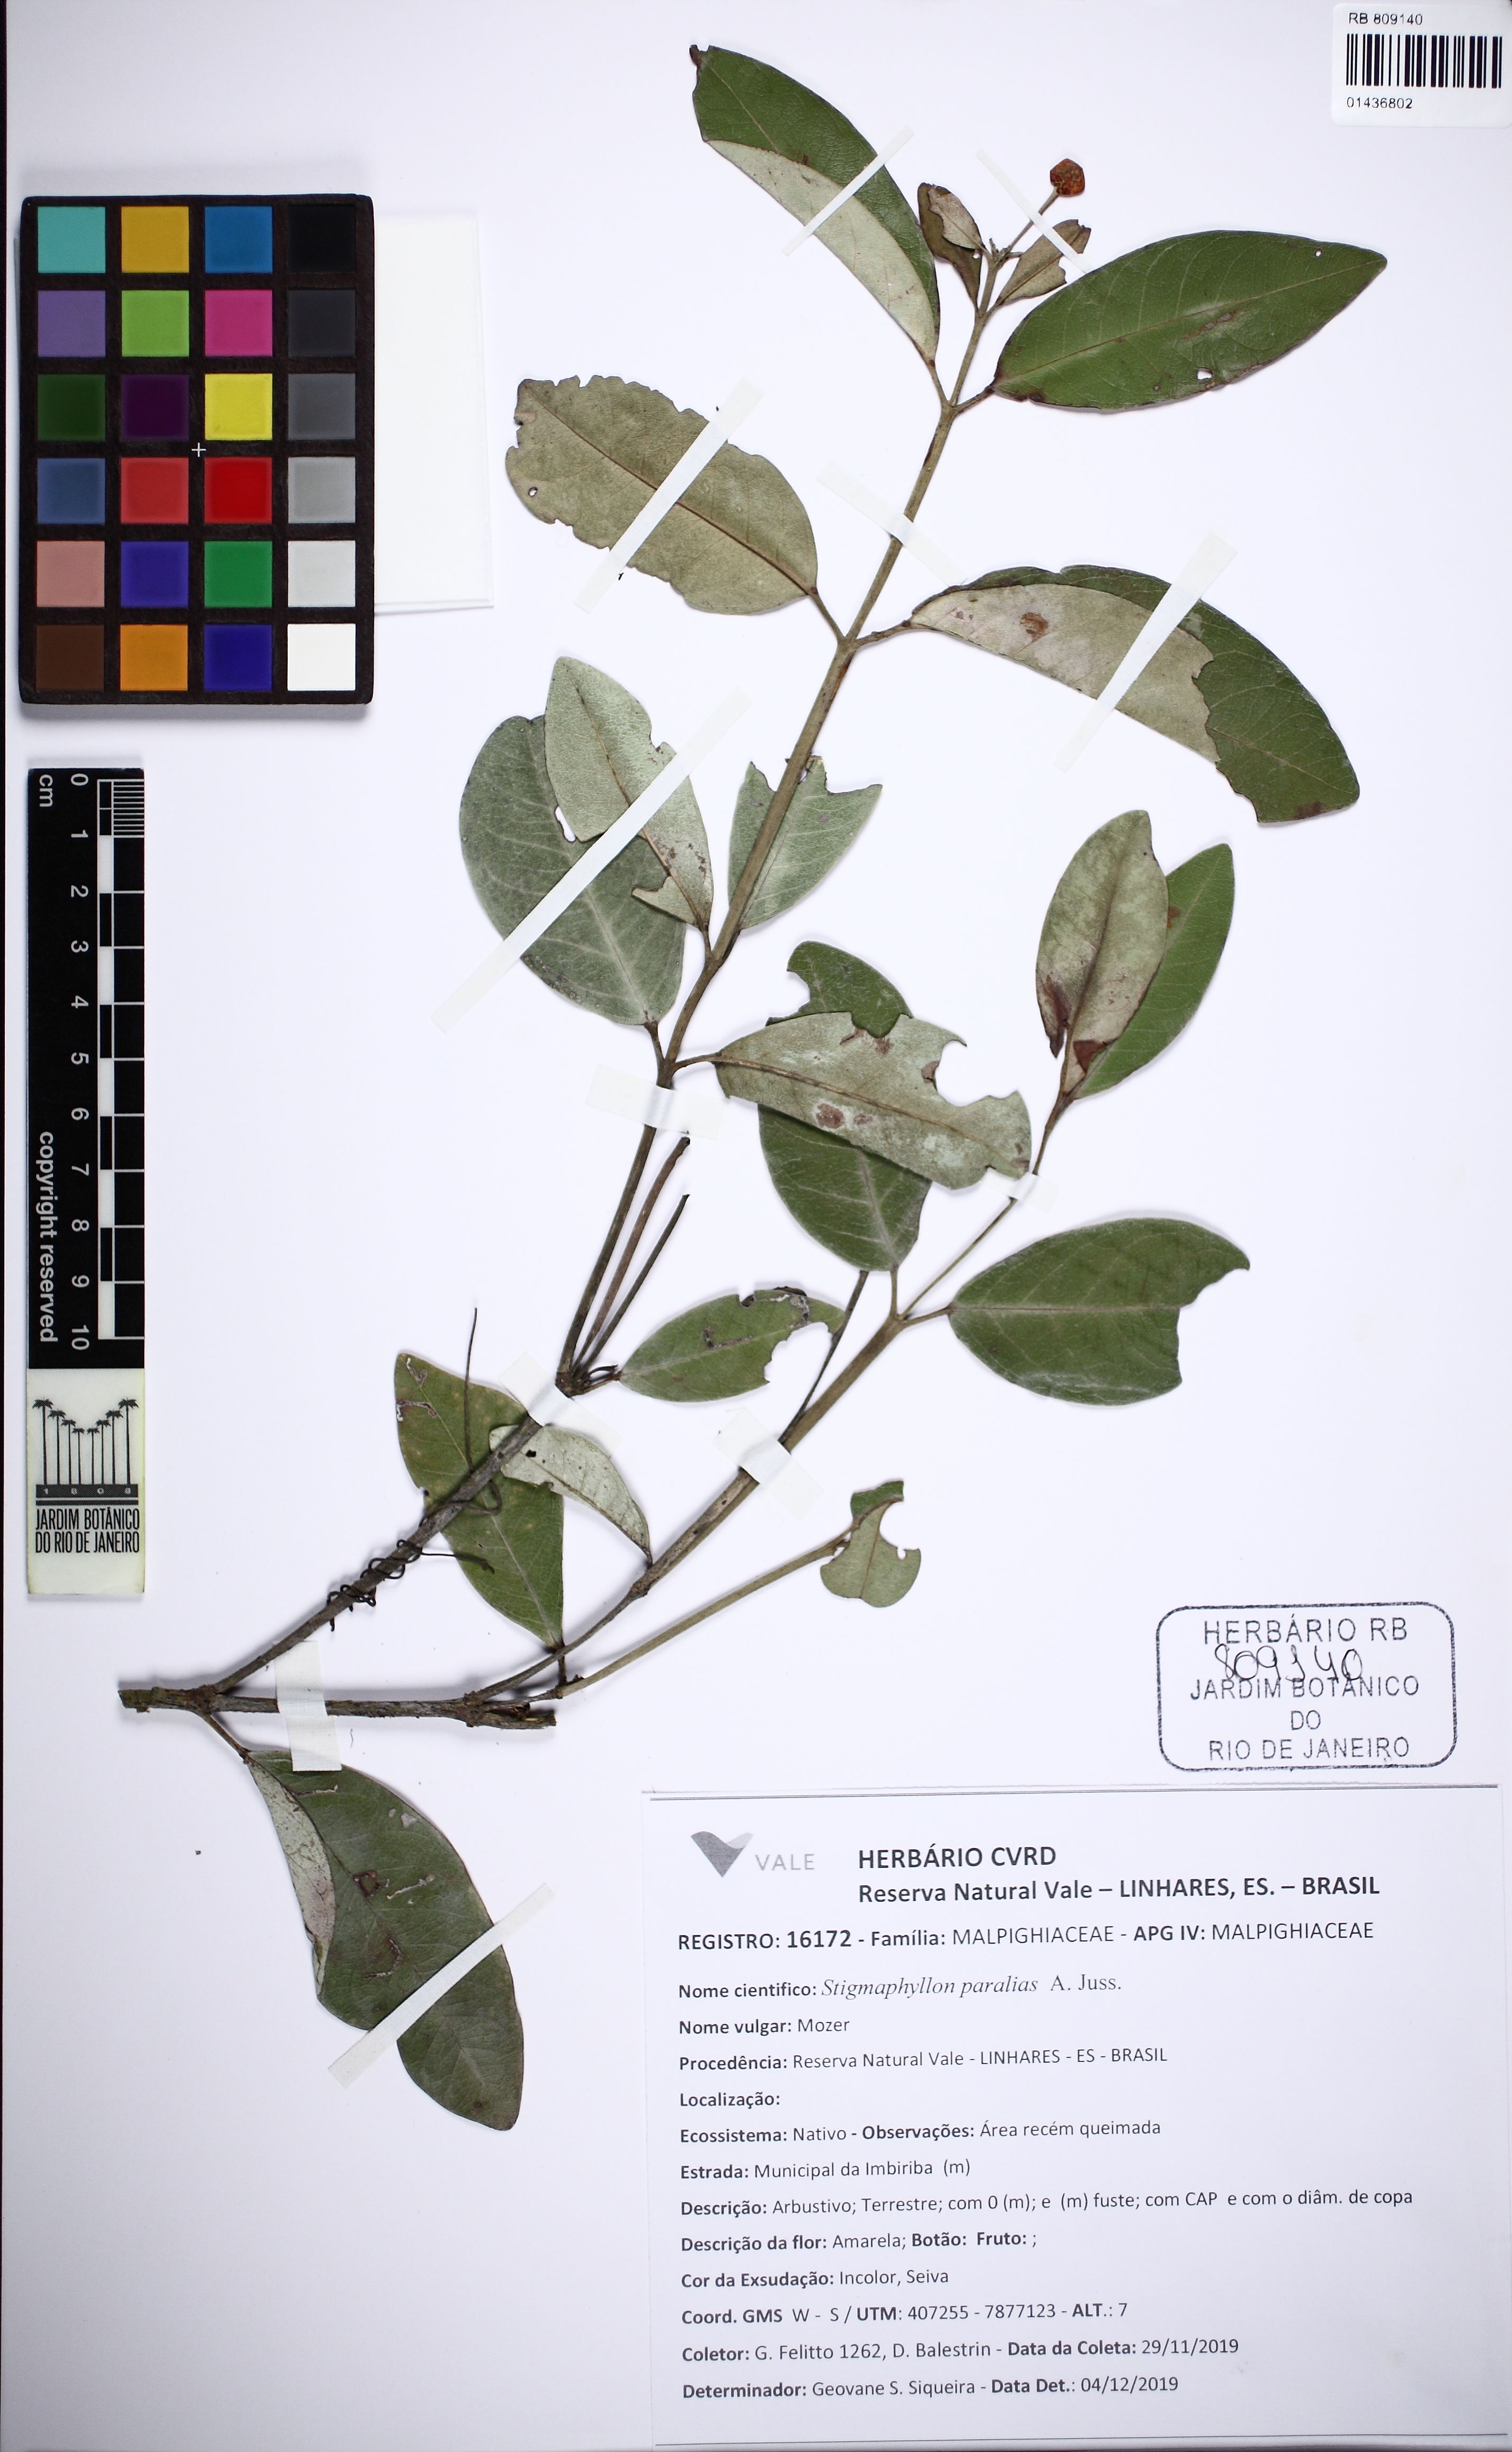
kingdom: Plantae
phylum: Tracheophyta
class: Magnoliopsida
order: Malpighiales
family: Malpighiaceae
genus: Stigmaphyllon
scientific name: Stigmaphyllon paralias
